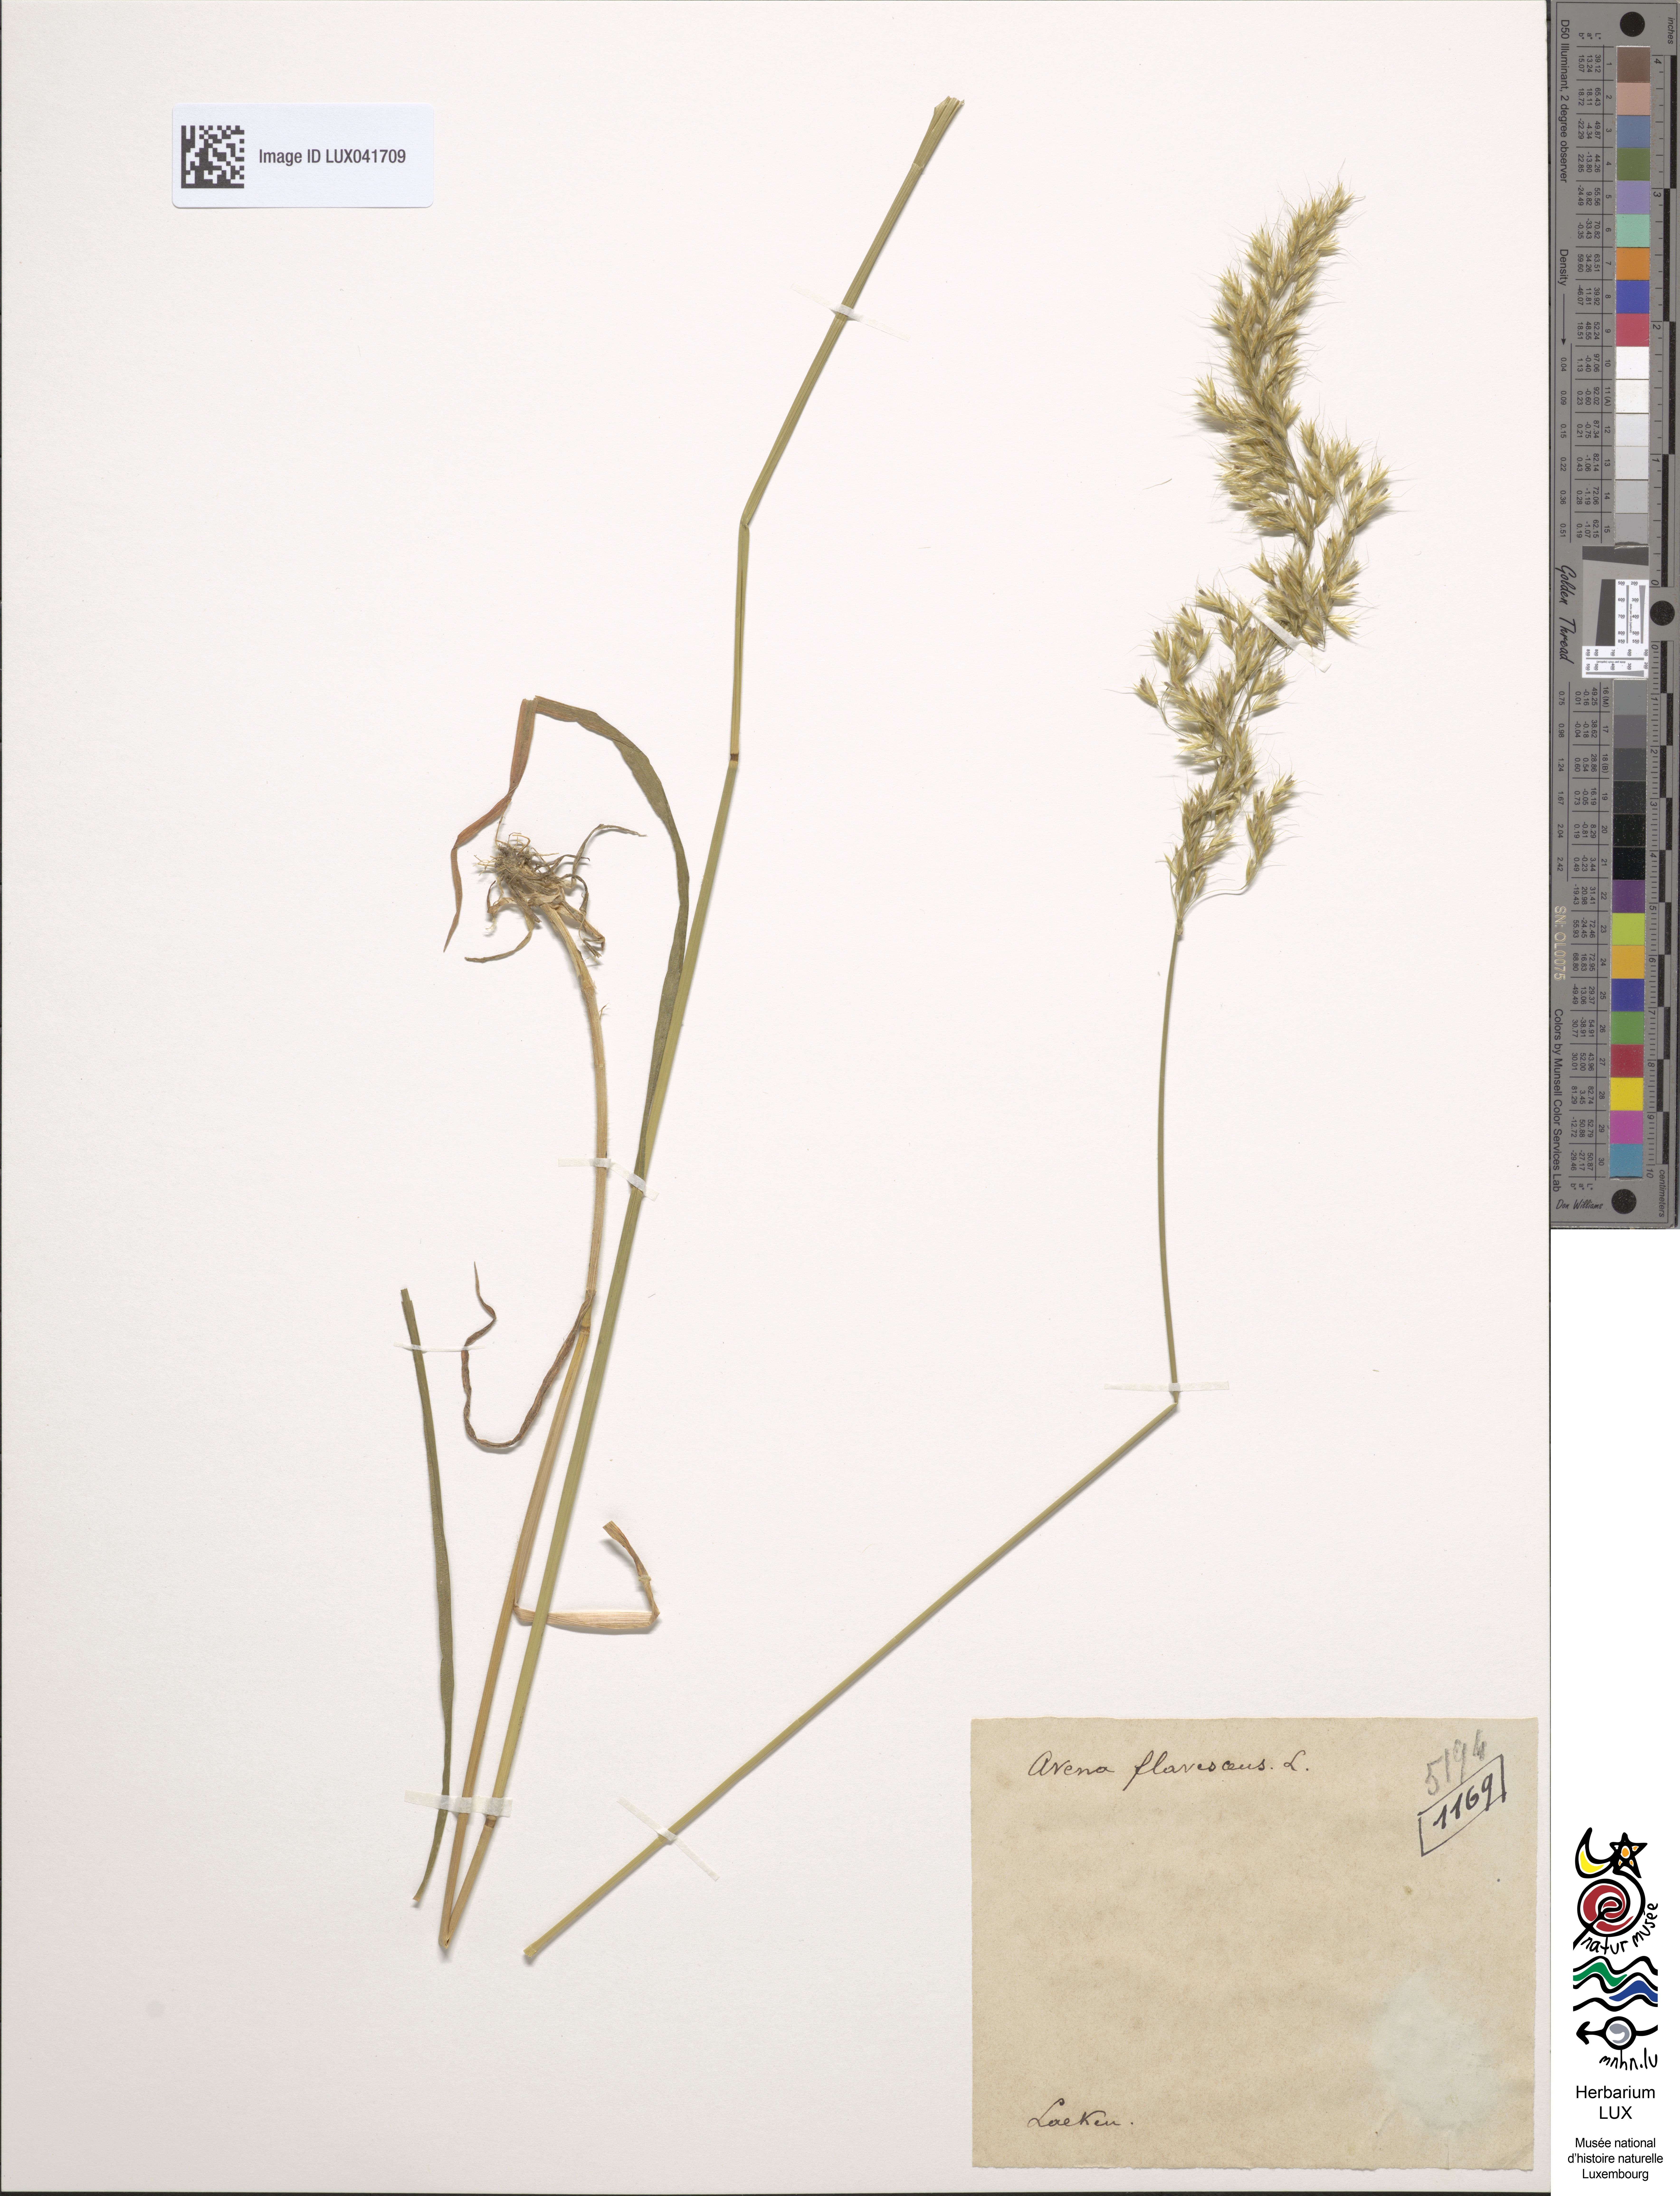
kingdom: Plantae
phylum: Tracheophyta
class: Liliopsida
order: Poales
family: Poaceae
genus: Trisetum
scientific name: Trisetum flavescens
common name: Yellow oat-grass
